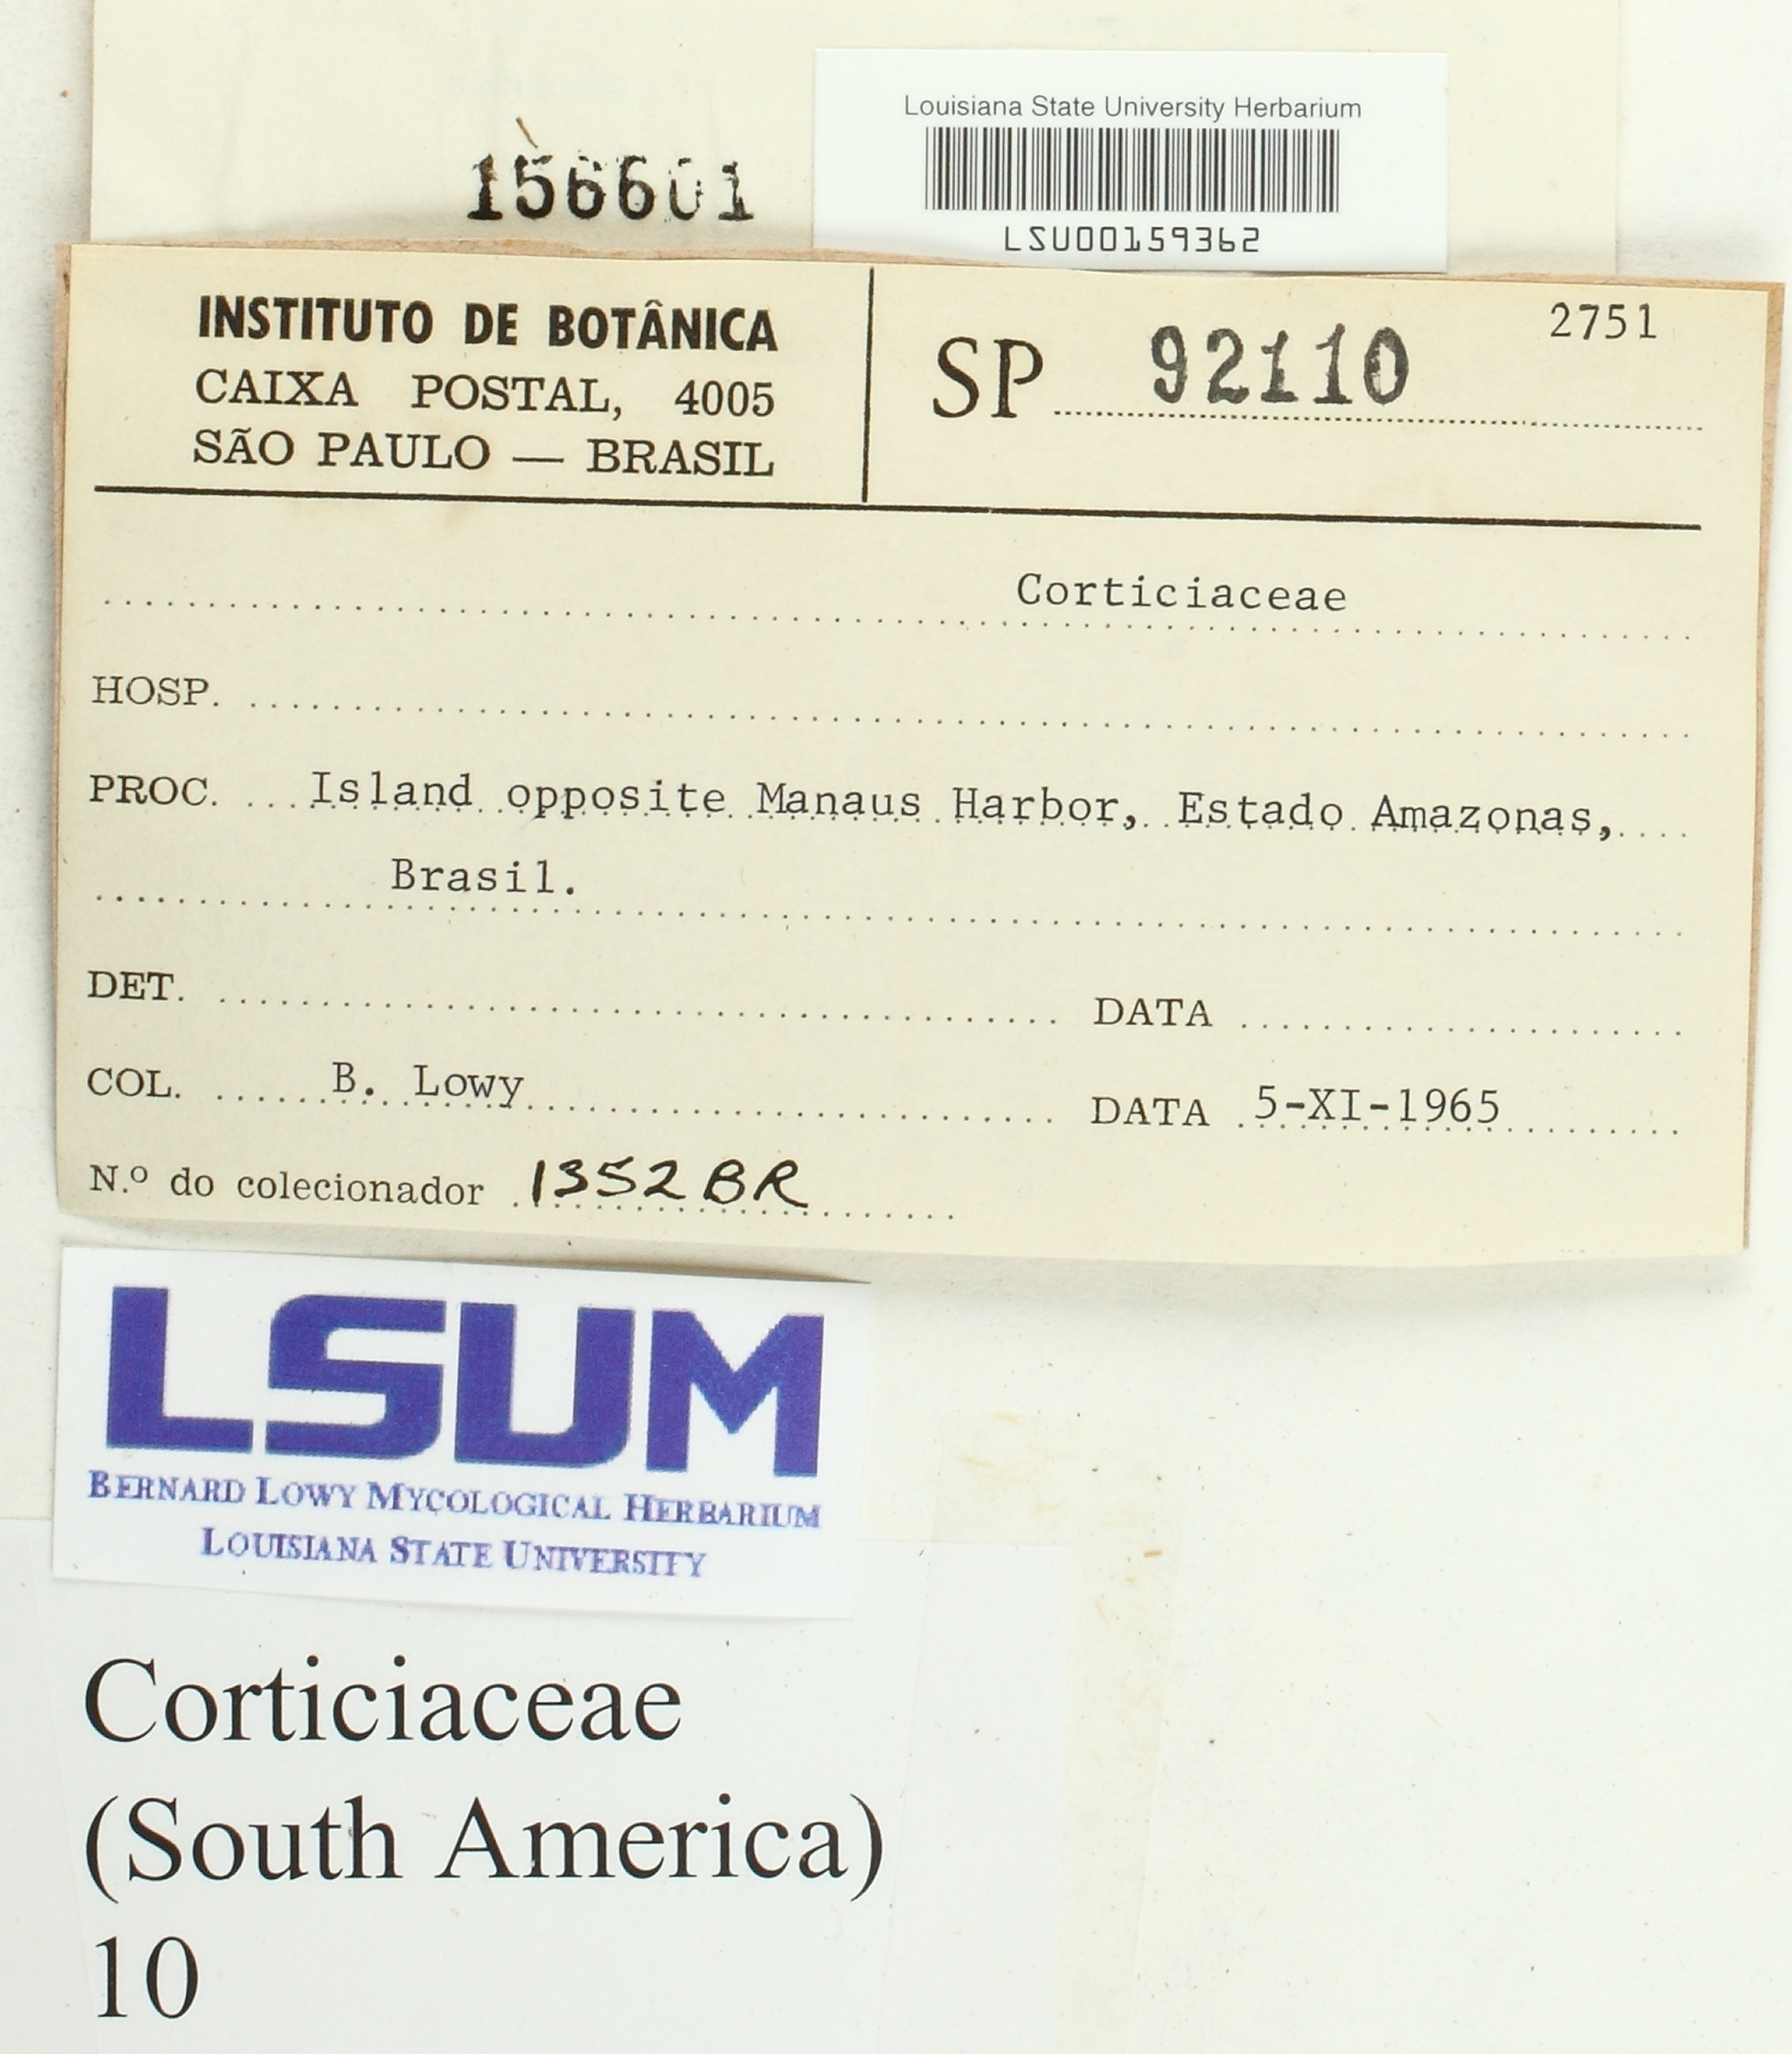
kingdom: Fungi
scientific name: Fungi
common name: Fungi
